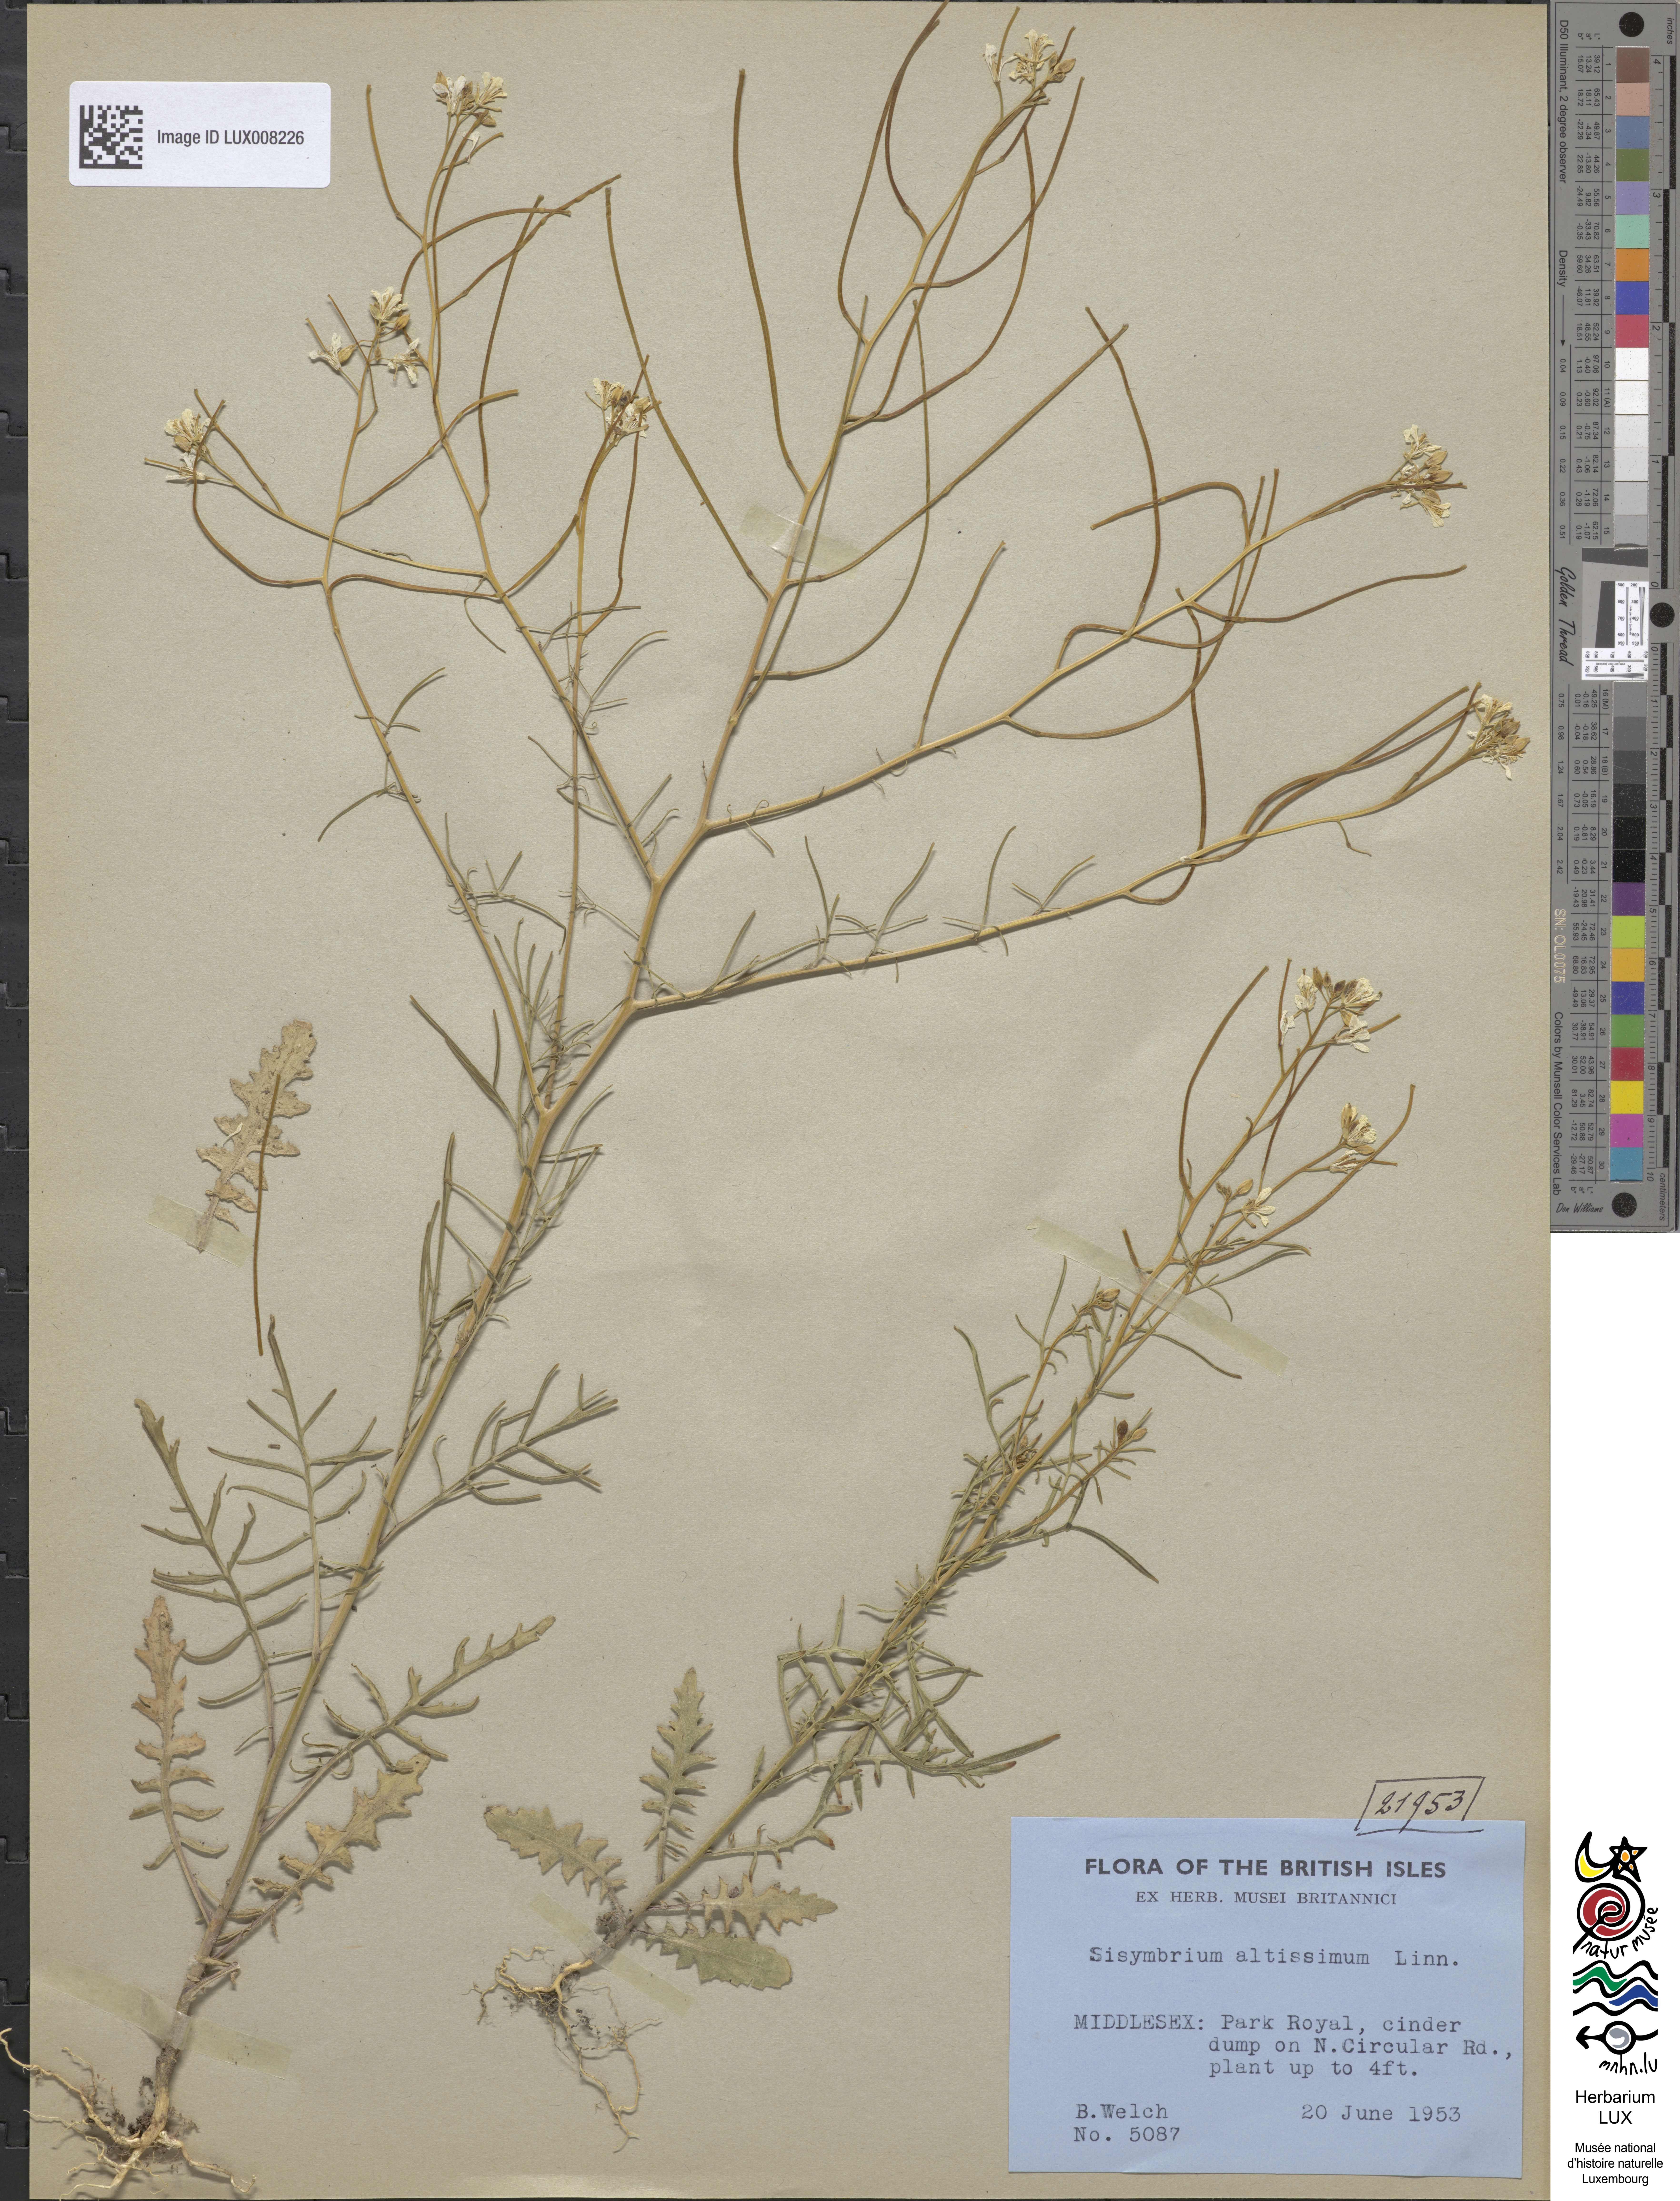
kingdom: Plantae
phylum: Tracheophyta
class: Magnoliopsida
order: Brassicales
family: Brassicaceae
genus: Sisymbrium
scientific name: Sisymbrium altissimum
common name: Tall rocket
